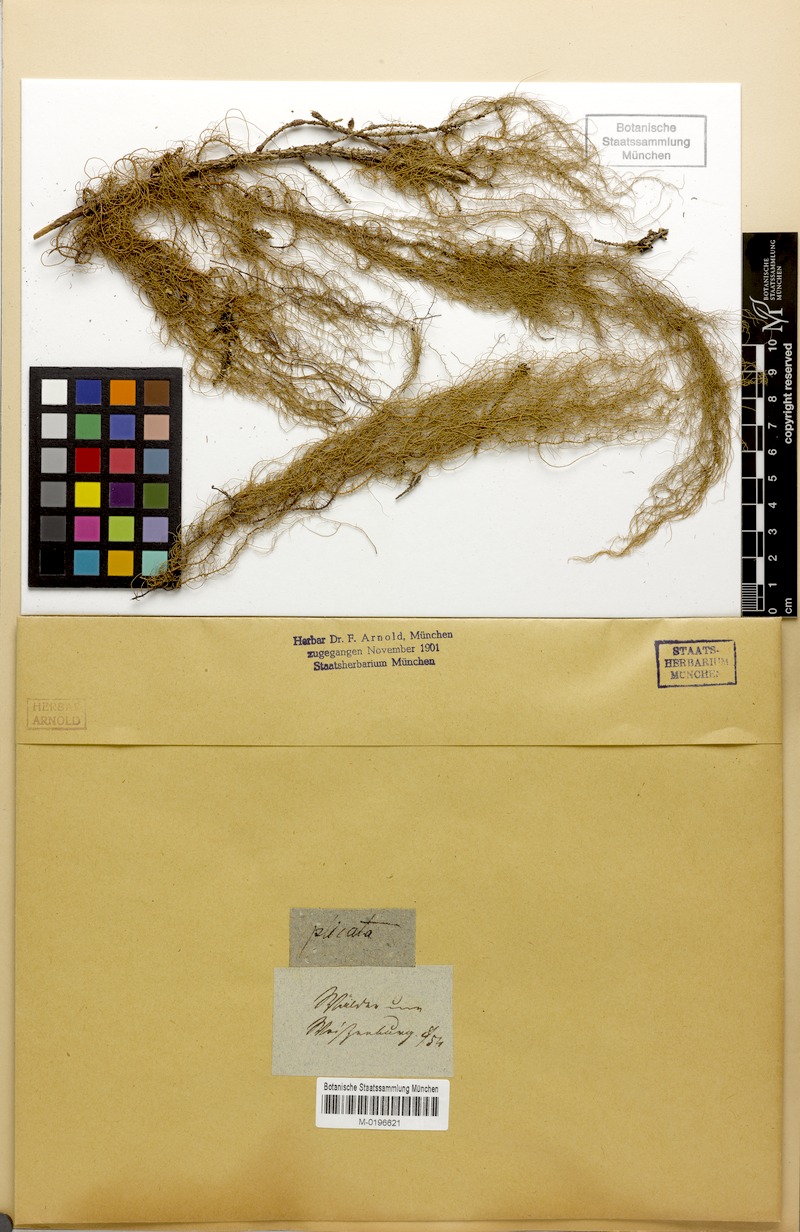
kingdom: Fungi
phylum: Ascomycota
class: Lecanoromycetes
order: Lecanorales
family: Parmeliaceae
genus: Usnea
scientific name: Usnea plicata
